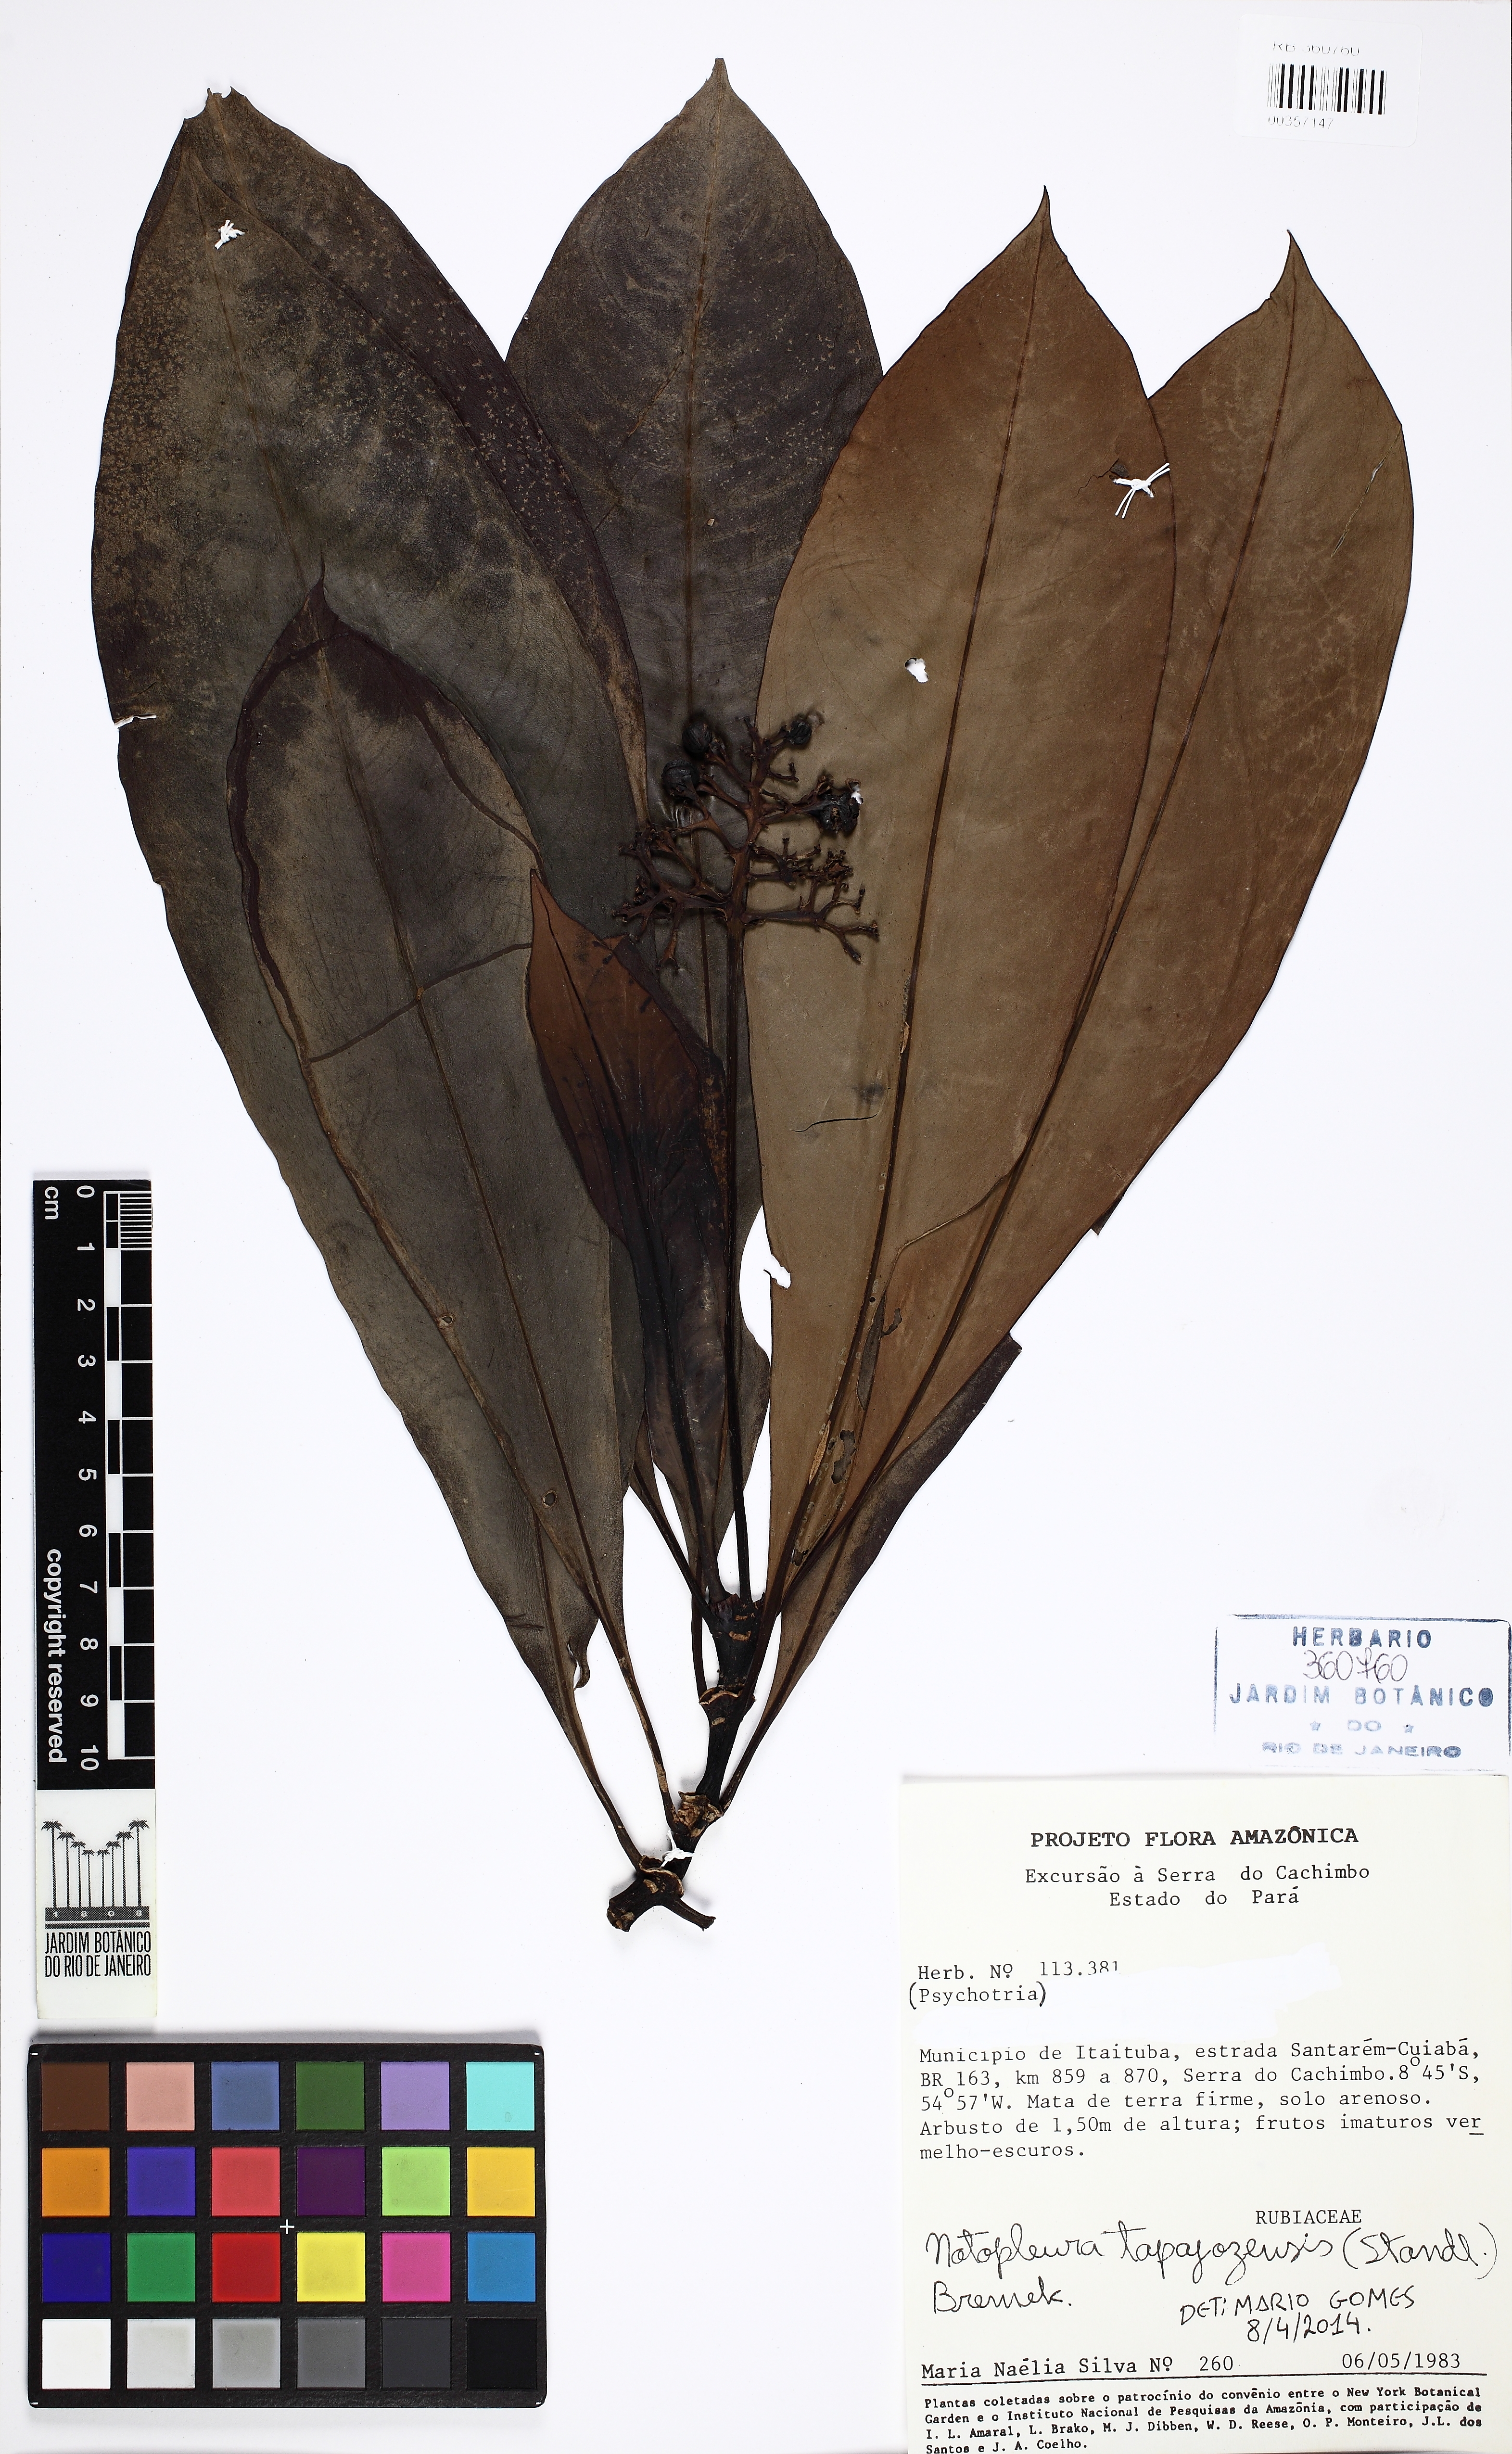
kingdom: Plantae
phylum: Tracheophyta
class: Magnoliopsida
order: Gentianales
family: Rubiaceae
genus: Notopleura
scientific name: Notopleura tapajozensis
